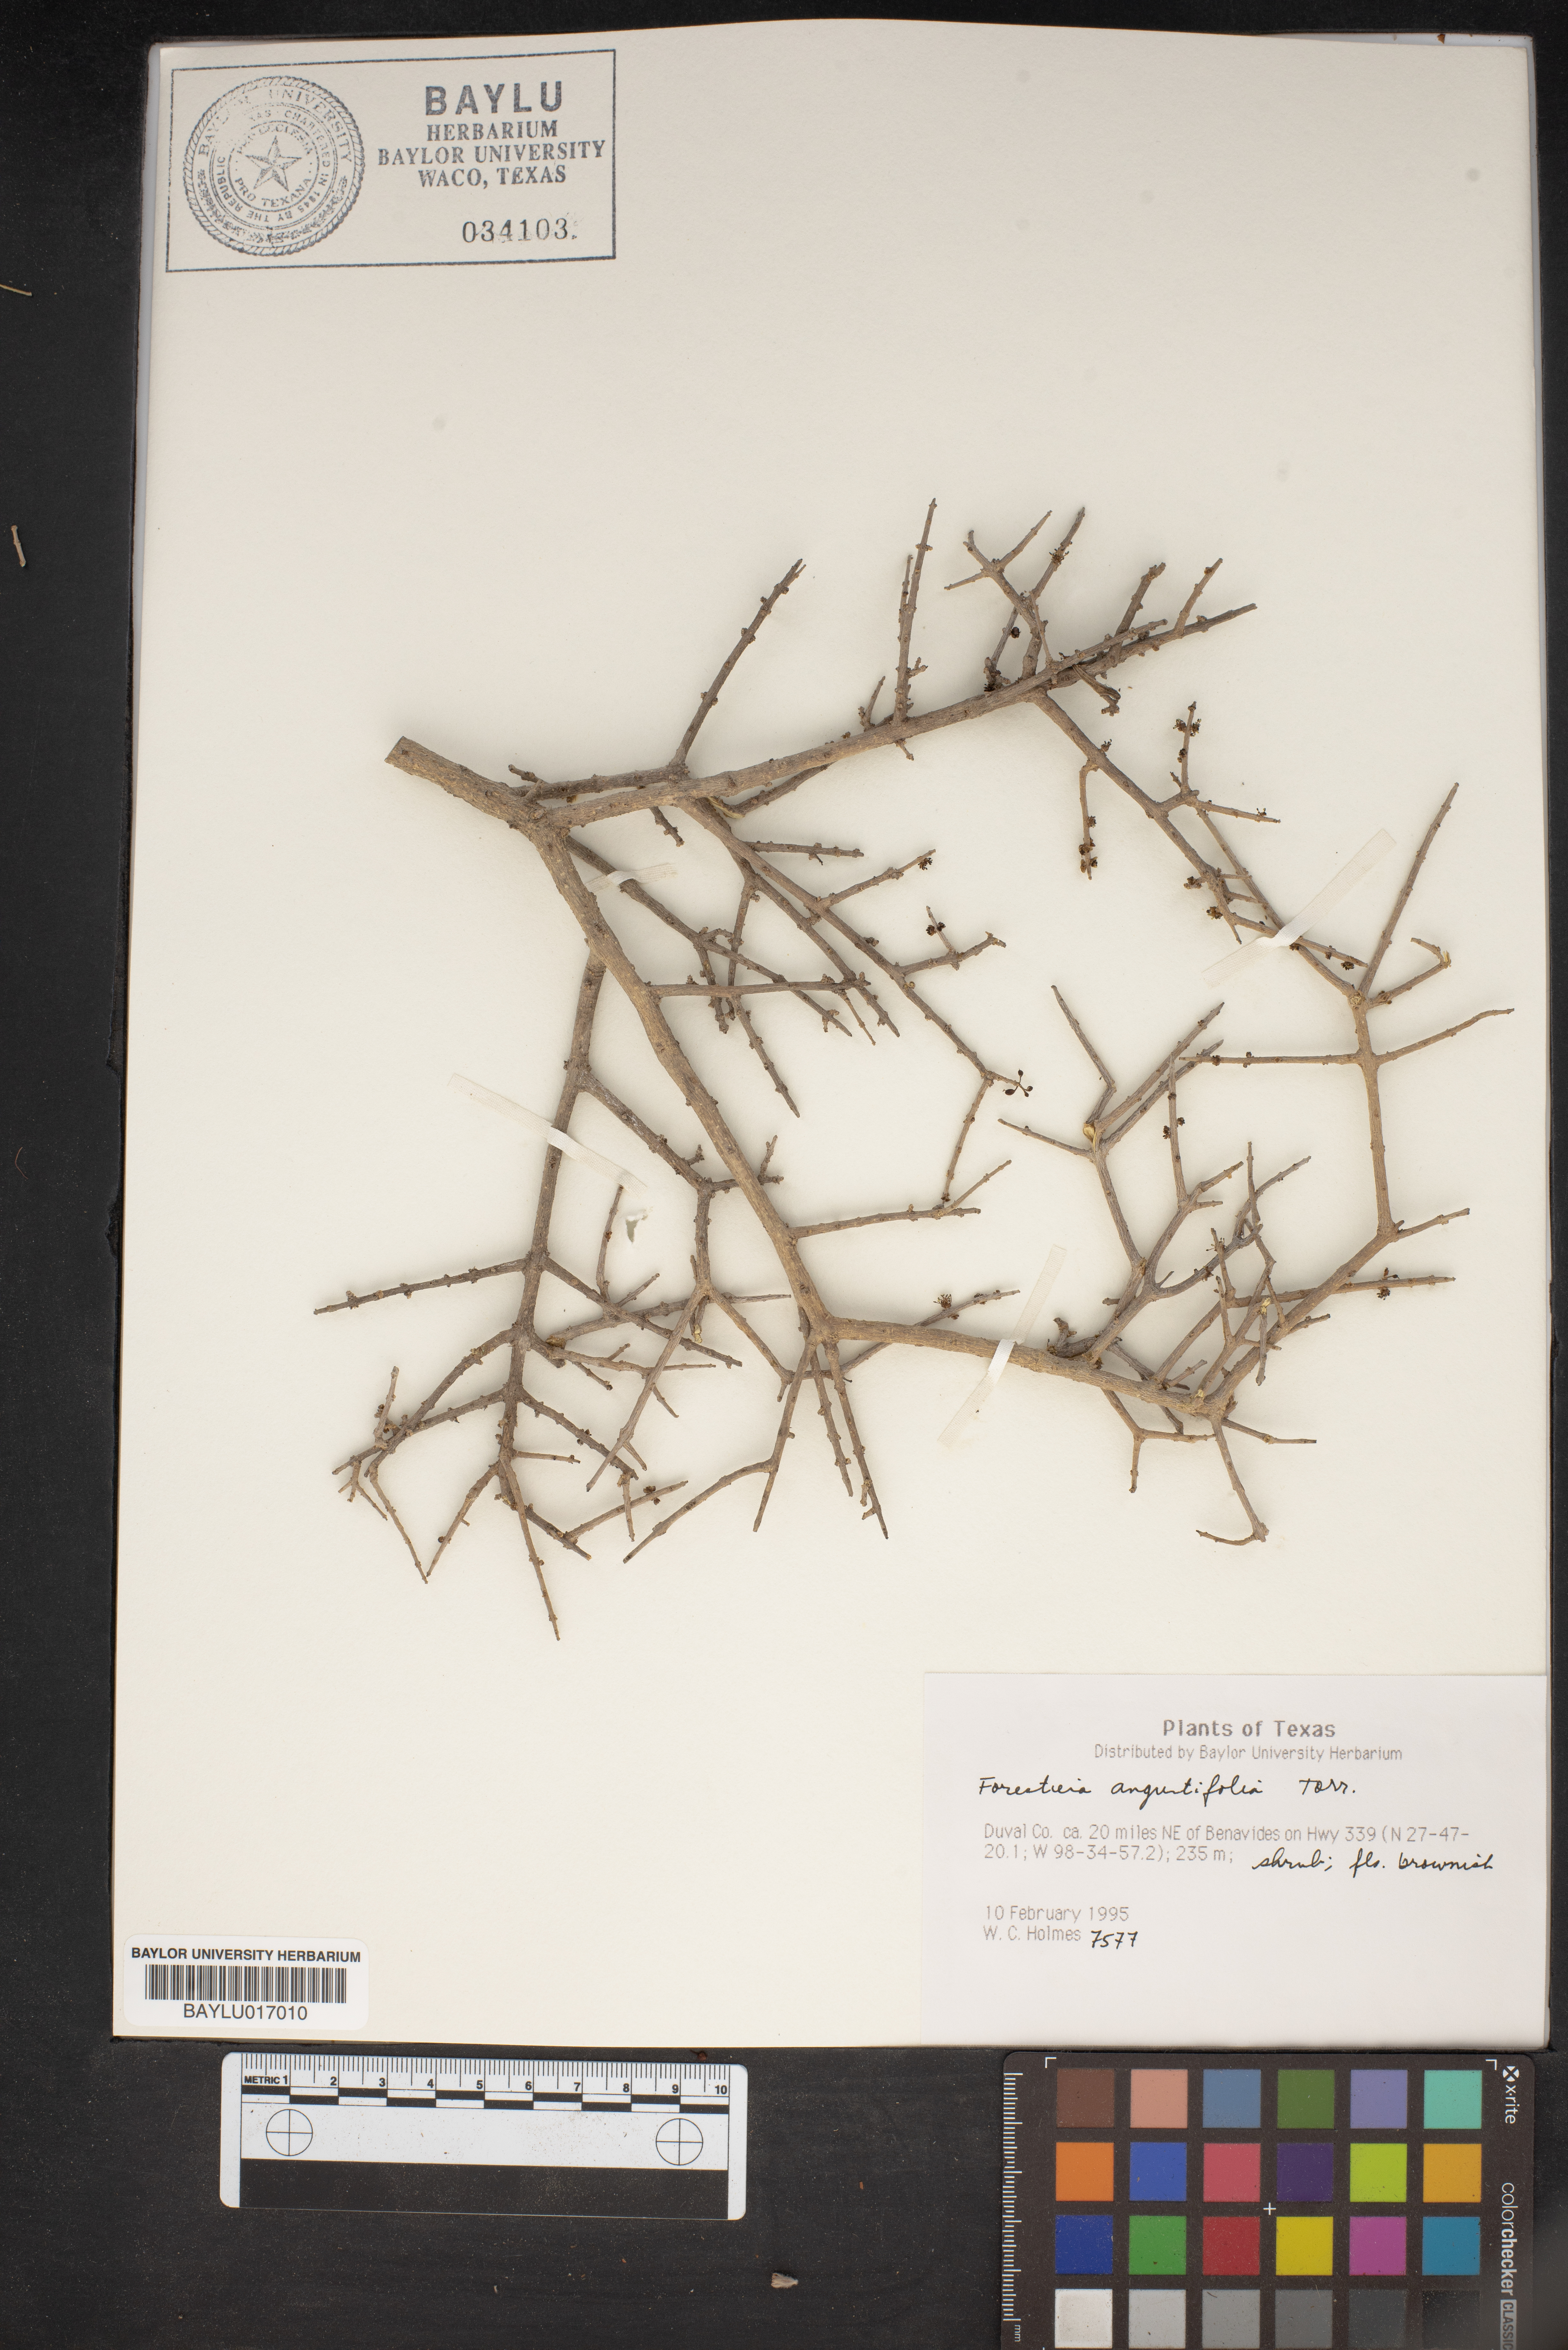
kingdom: Plantae
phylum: Tracheophyta
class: Magnoliopsida
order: Lamiales
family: Oleaceae
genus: Forestiera
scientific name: Forestiera angustifolia
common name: Elbowbush
